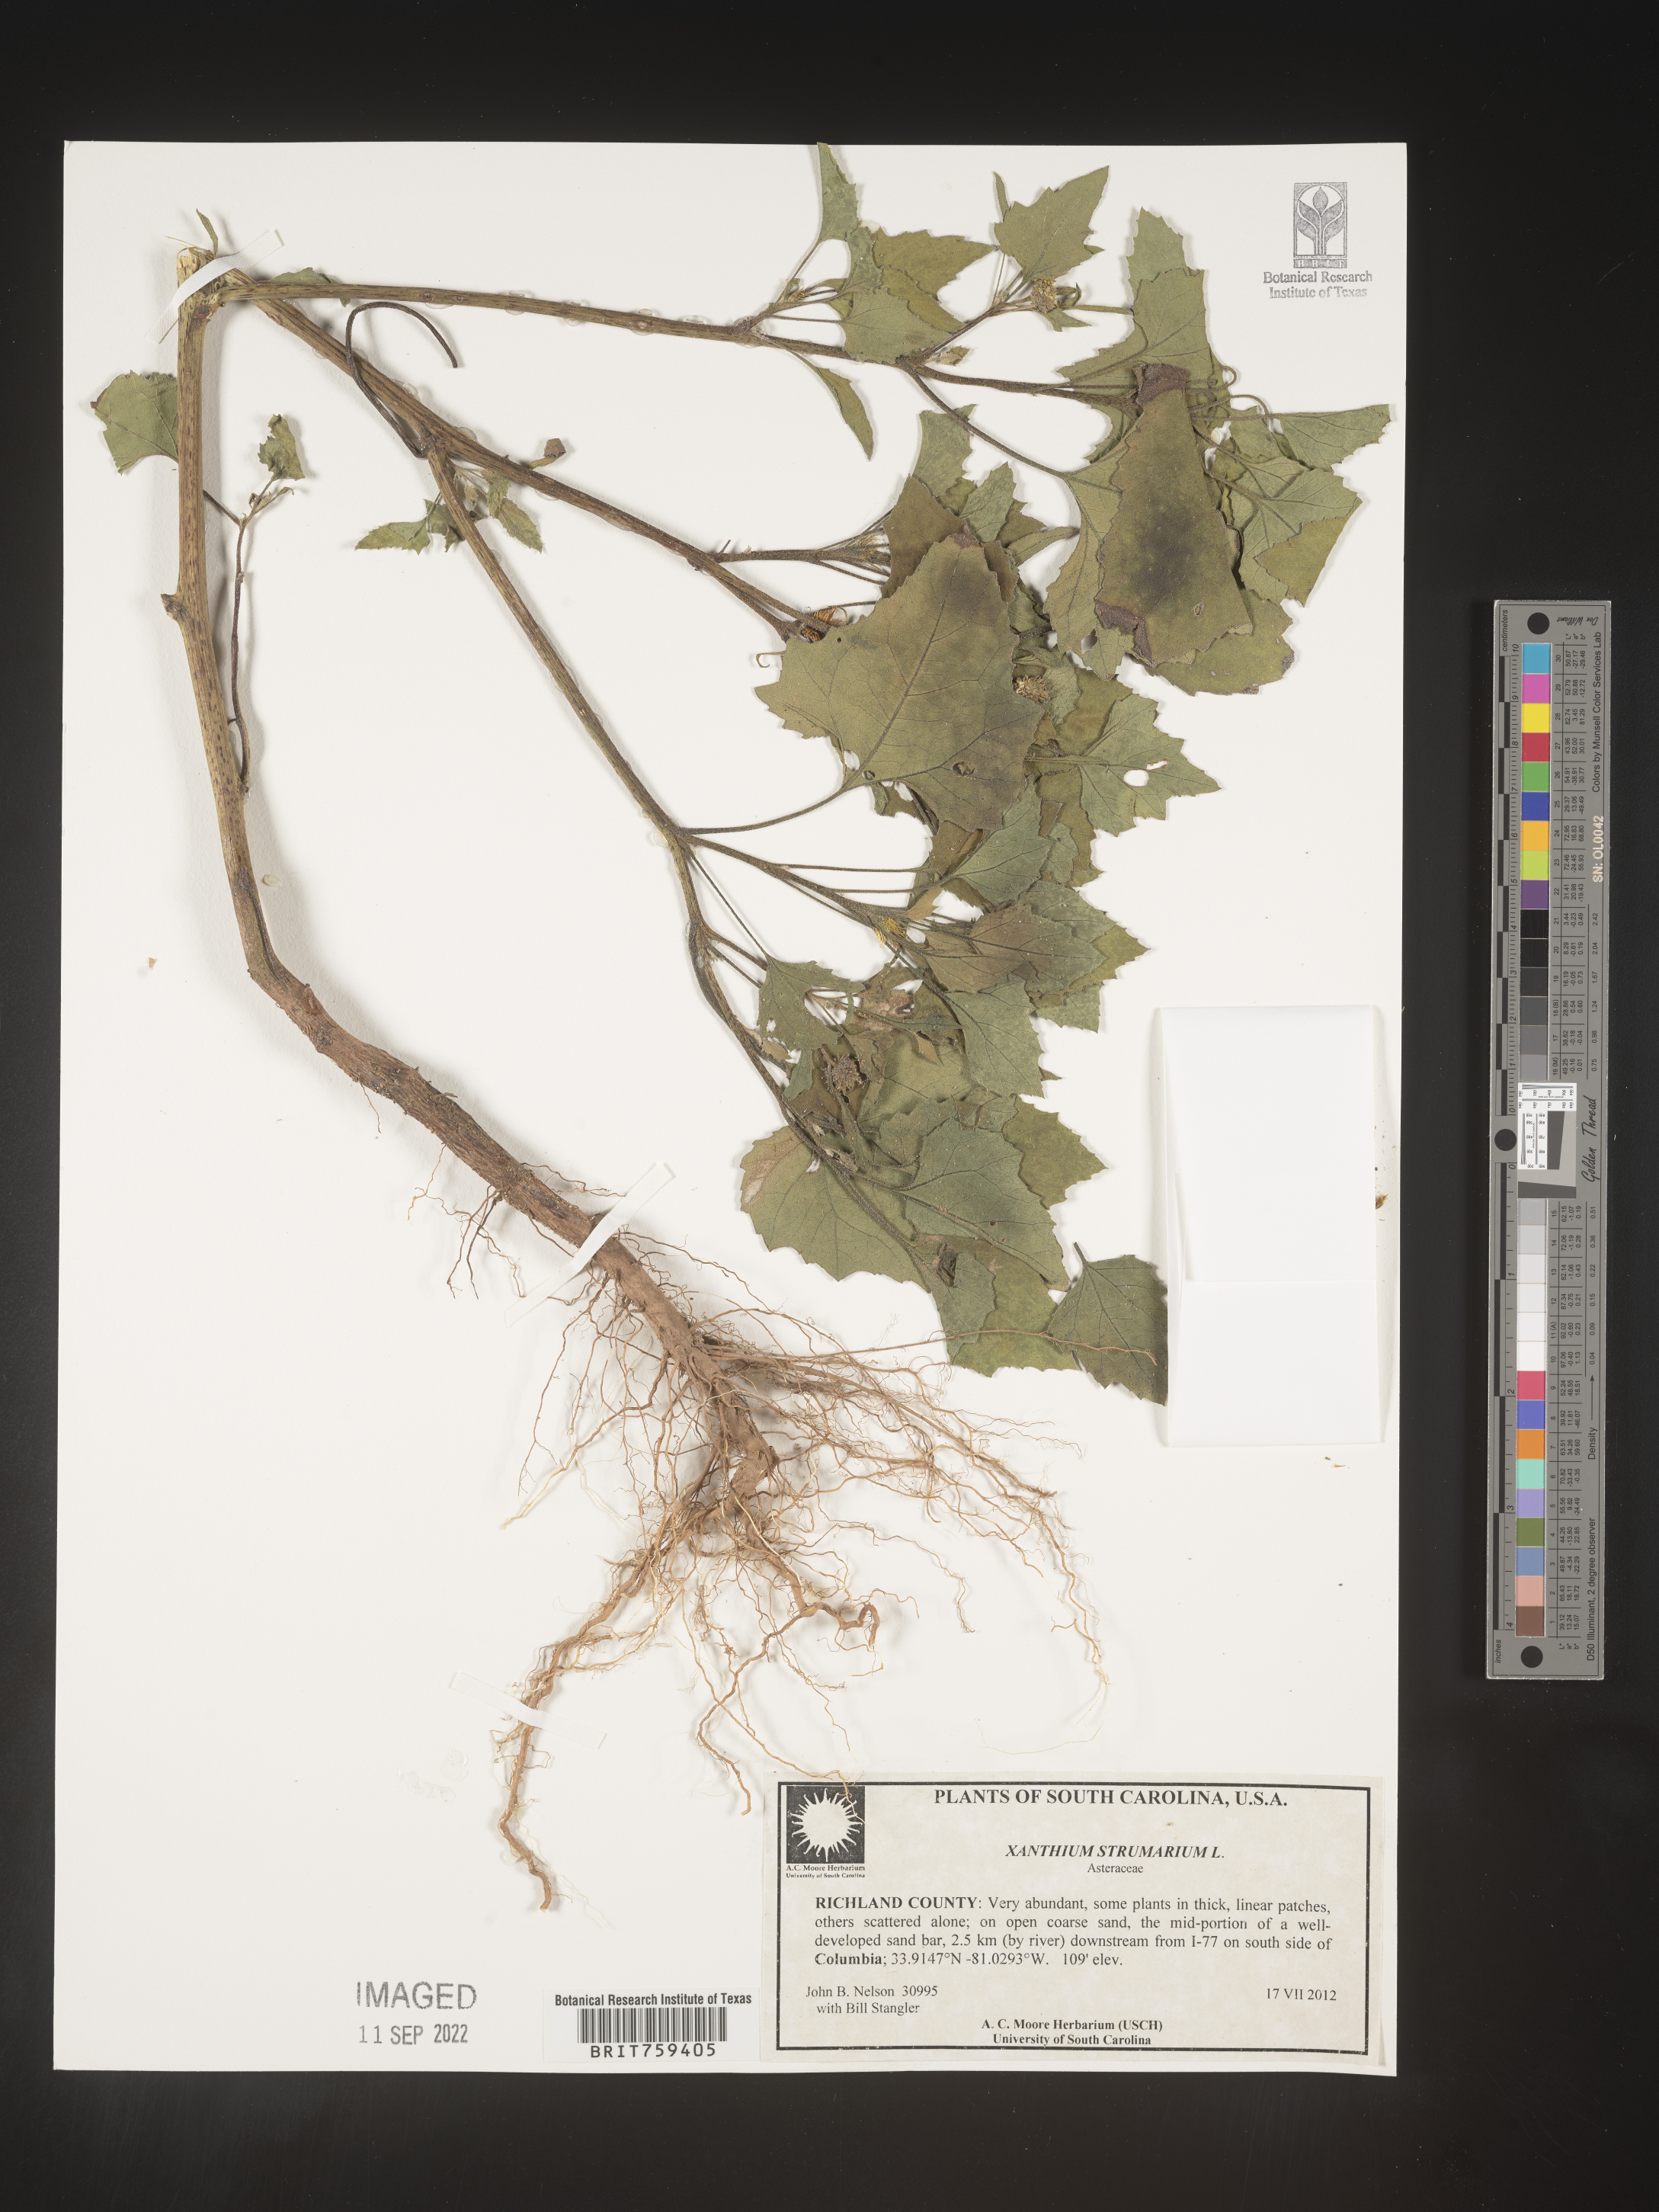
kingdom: Plantae
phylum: Tracheophyta
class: Magnoliopsida
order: Asterales
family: Asteraceae
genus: Xanthium
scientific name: Xanthium strumarium
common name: Rough cocklebur
